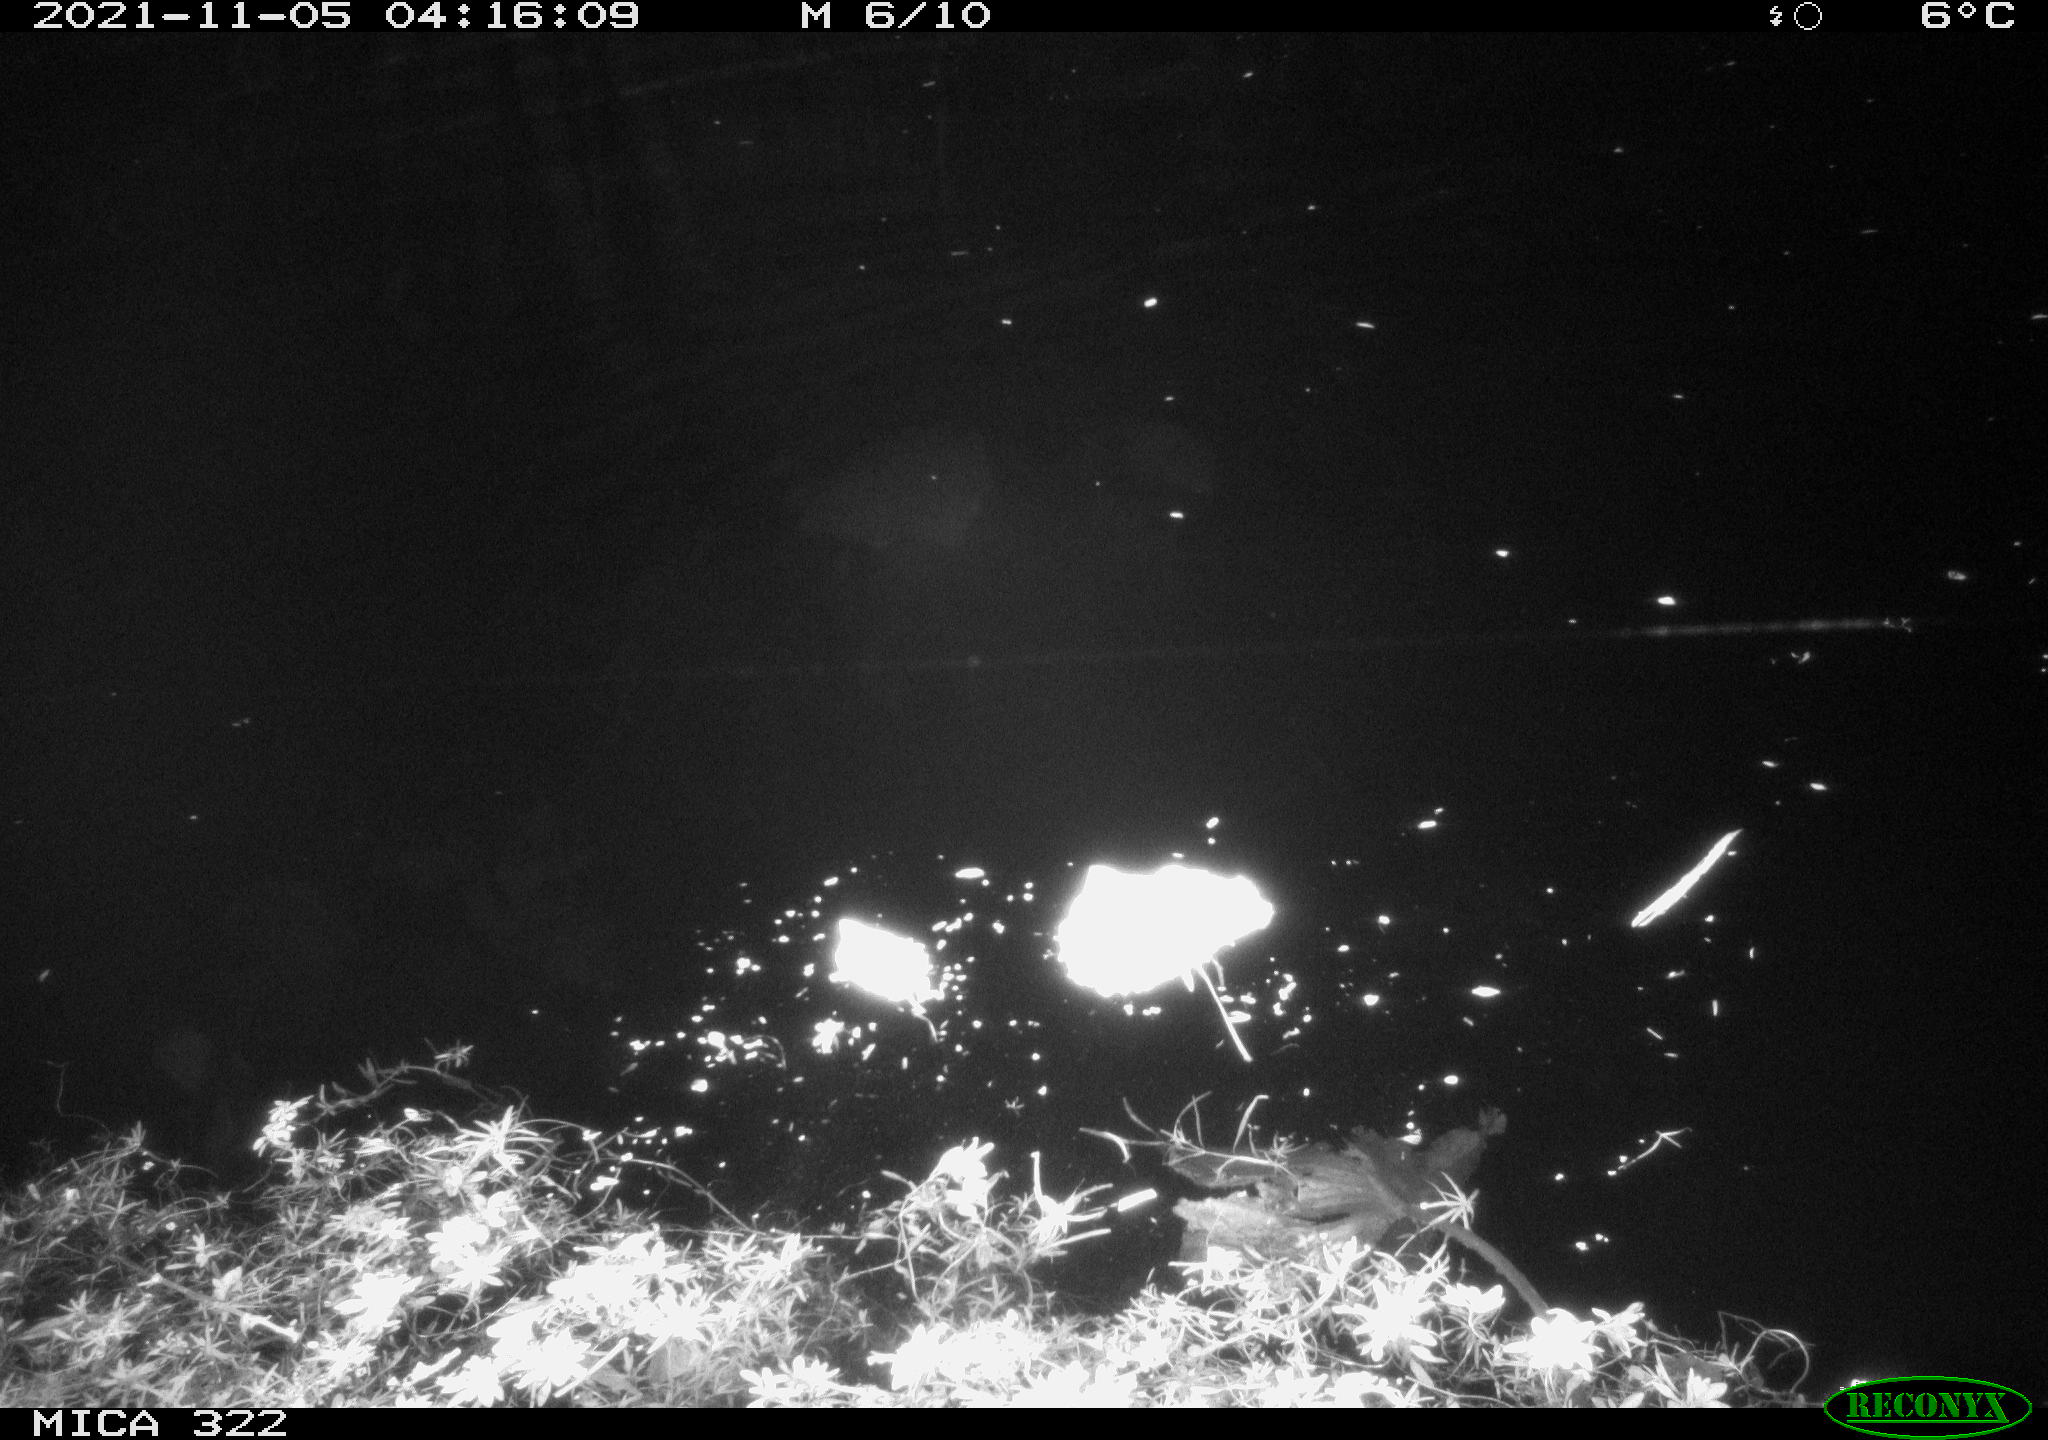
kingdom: Animalia
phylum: Chordata
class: Mammalia
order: Rodentia
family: Muridae
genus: Rattus
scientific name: Rattus norvegicus
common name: Brown rat
